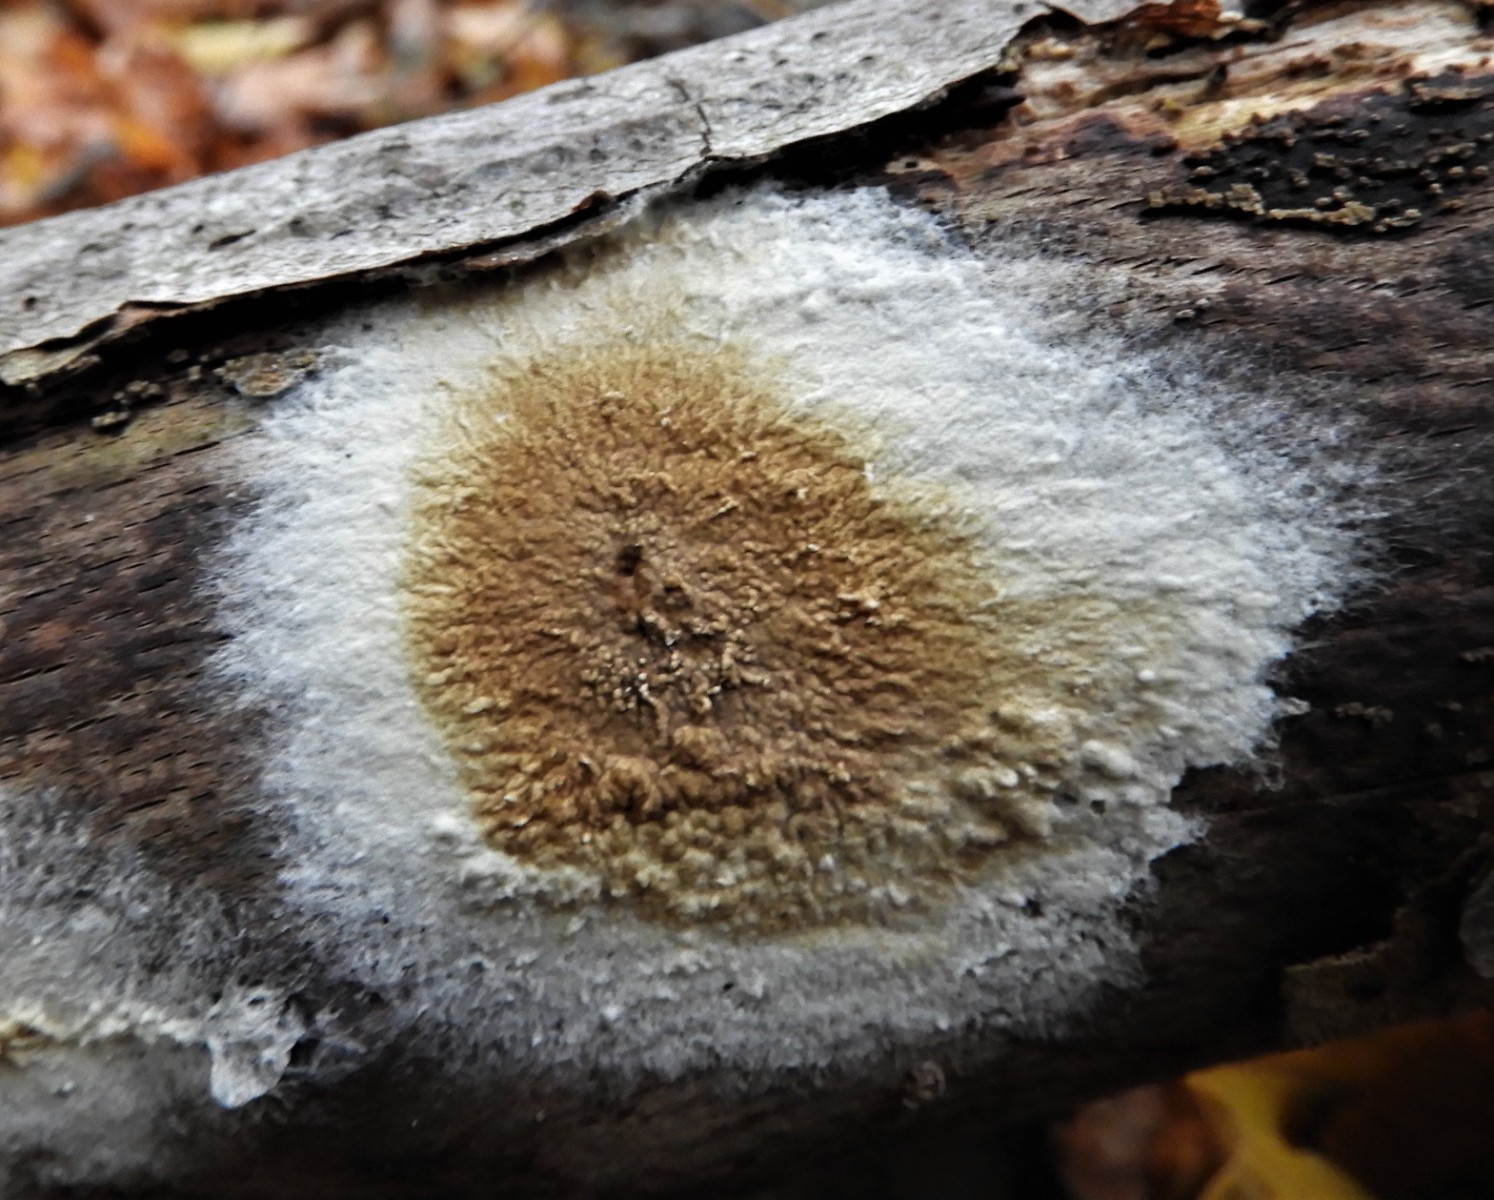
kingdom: Fungi
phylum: Basidiomycota
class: Agaricomycetes
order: Boletales
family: Coniophoraceae
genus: Coniophora
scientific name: Coniophora puteana
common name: gul tømmersvamp
